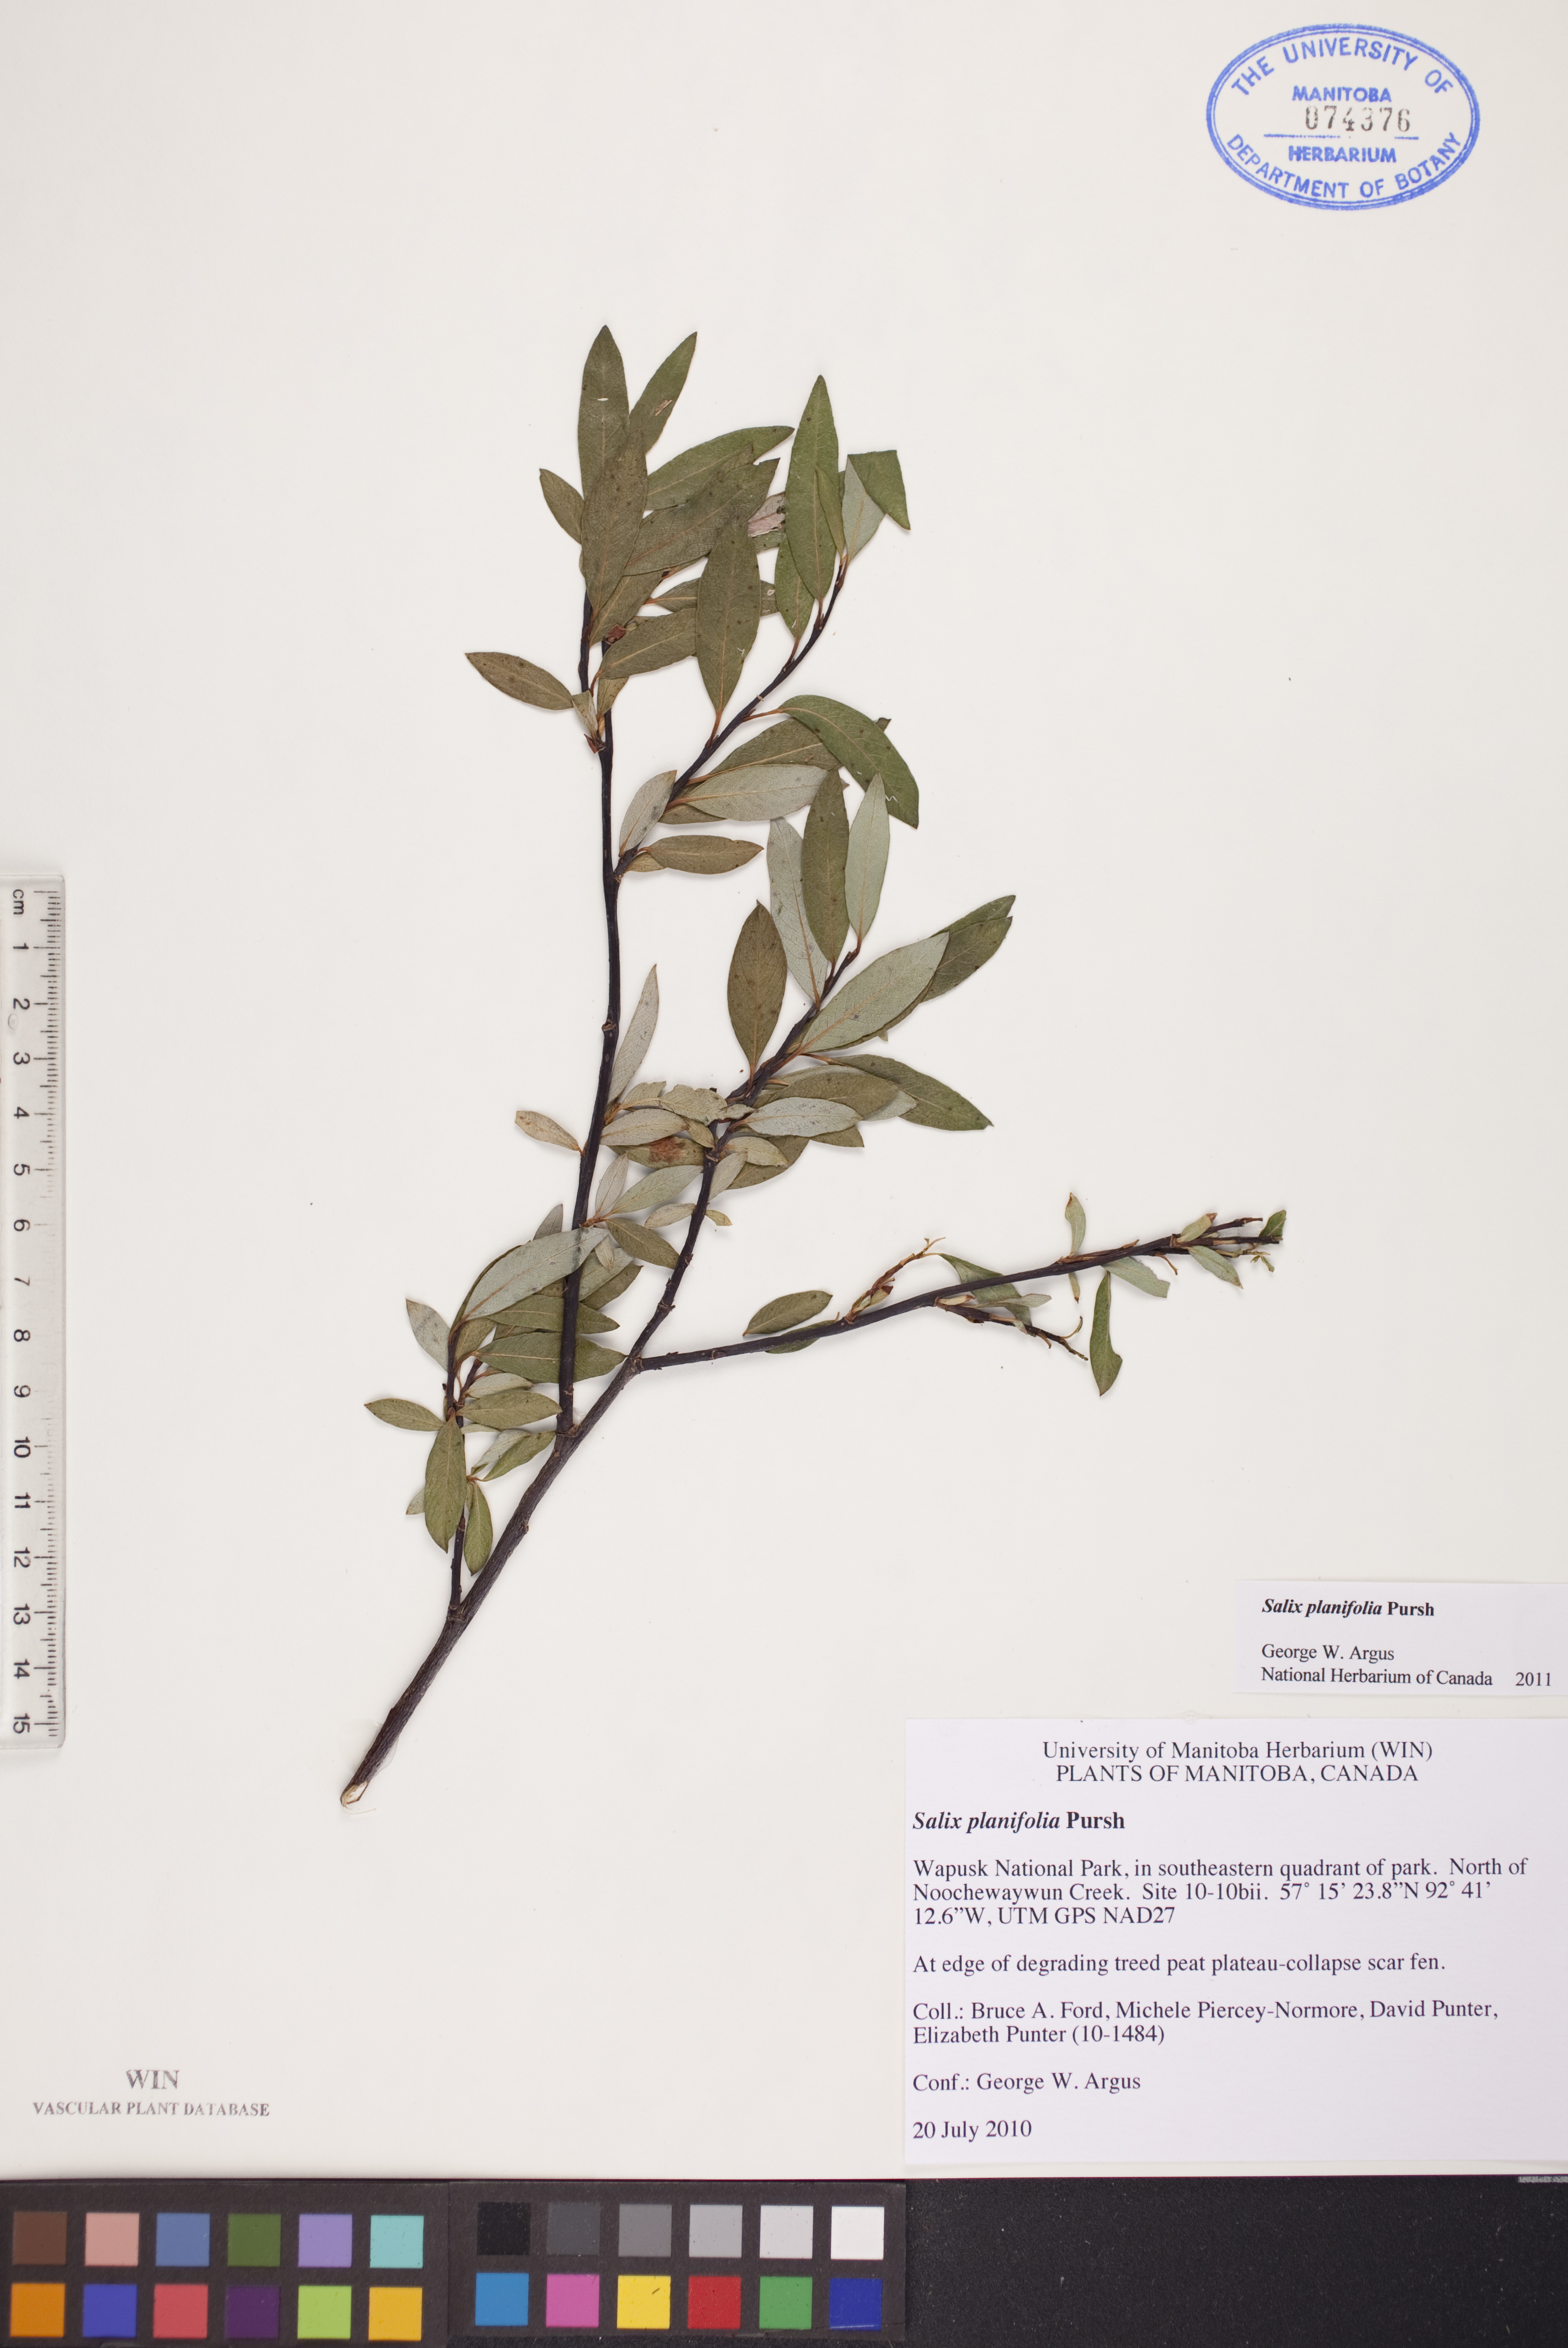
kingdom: Plantae
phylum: Tracheophyta
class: Magnoliopsida
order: Malpighiales
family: Salicaceae
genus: Salix
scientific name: Salix planifolia
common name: Mountain willow
